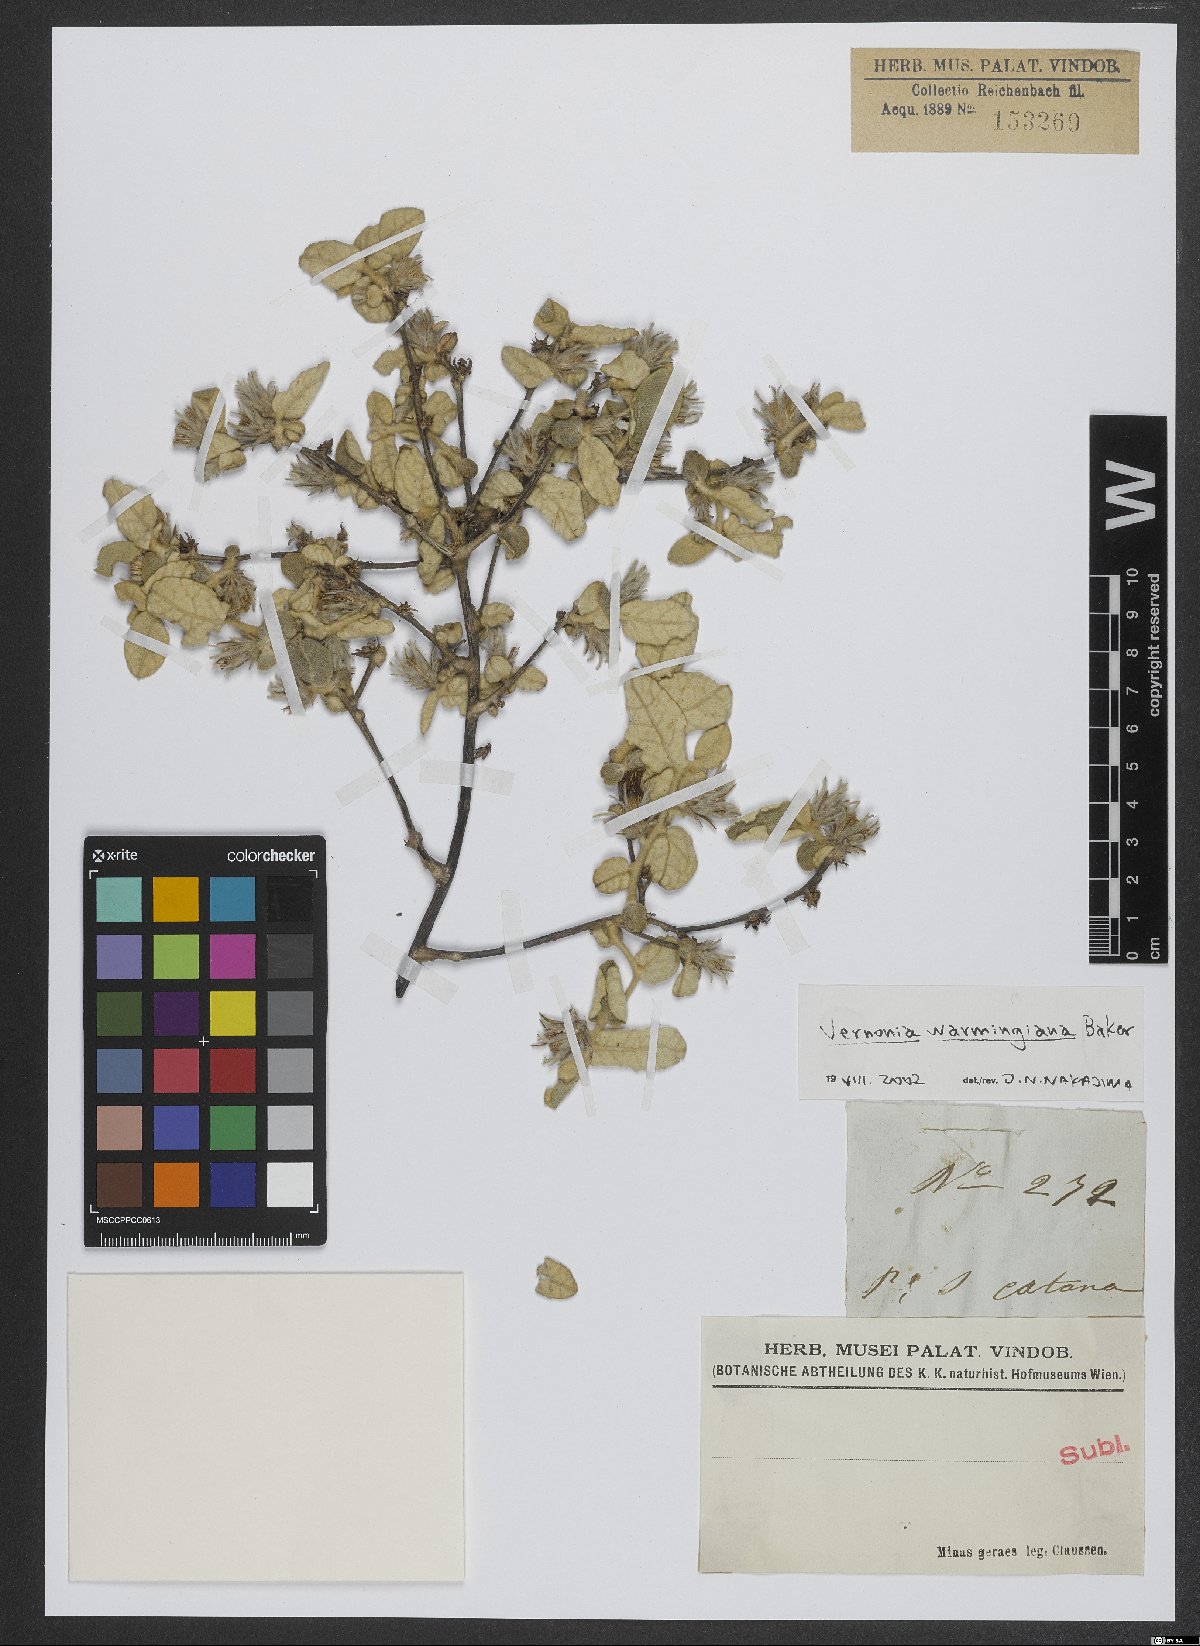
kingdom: Plantae
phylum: Tracheophyta
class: Magnoliopsida
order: Asterales
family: Asteraceae
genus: Lessingianthus
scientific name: Lessingianthus warmingianus
